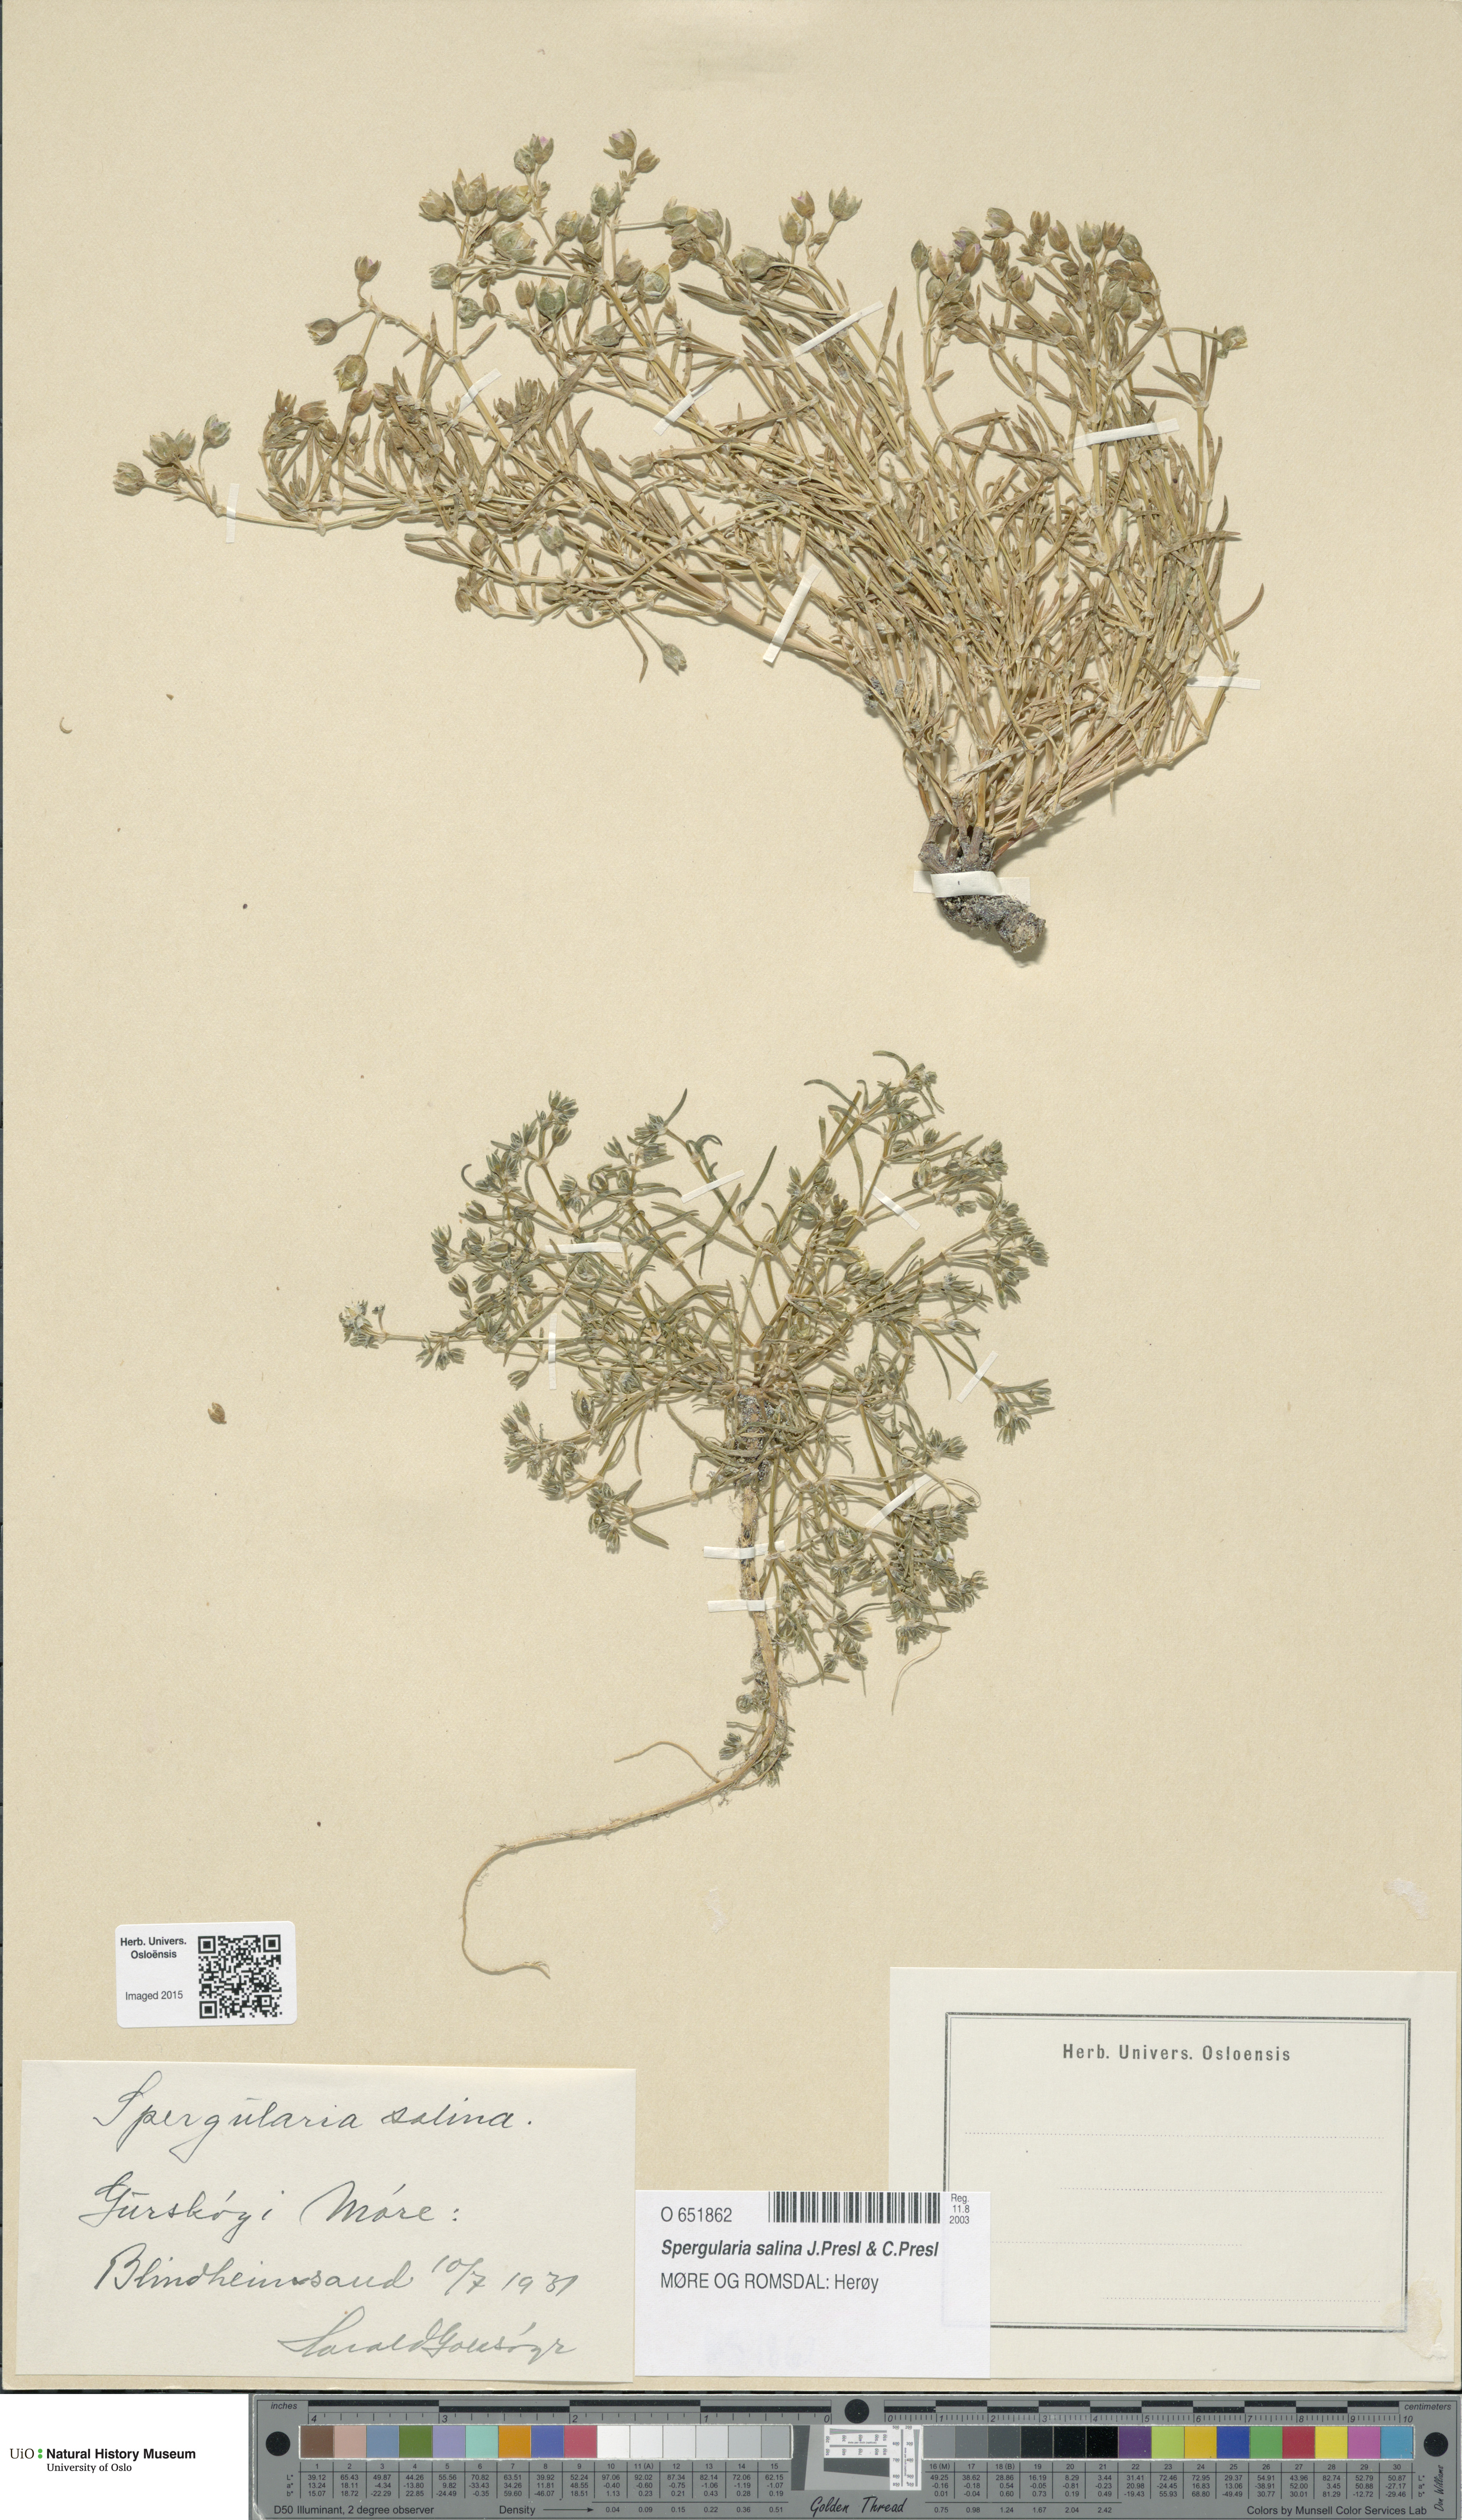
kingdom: Plantae
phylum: Tracheophyta
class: Magnoliopsida
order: Caryophyllales
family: Caryophyllaceae
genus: Spergularia
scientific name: Spergularia marina
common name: Lesser sea-spurrey
